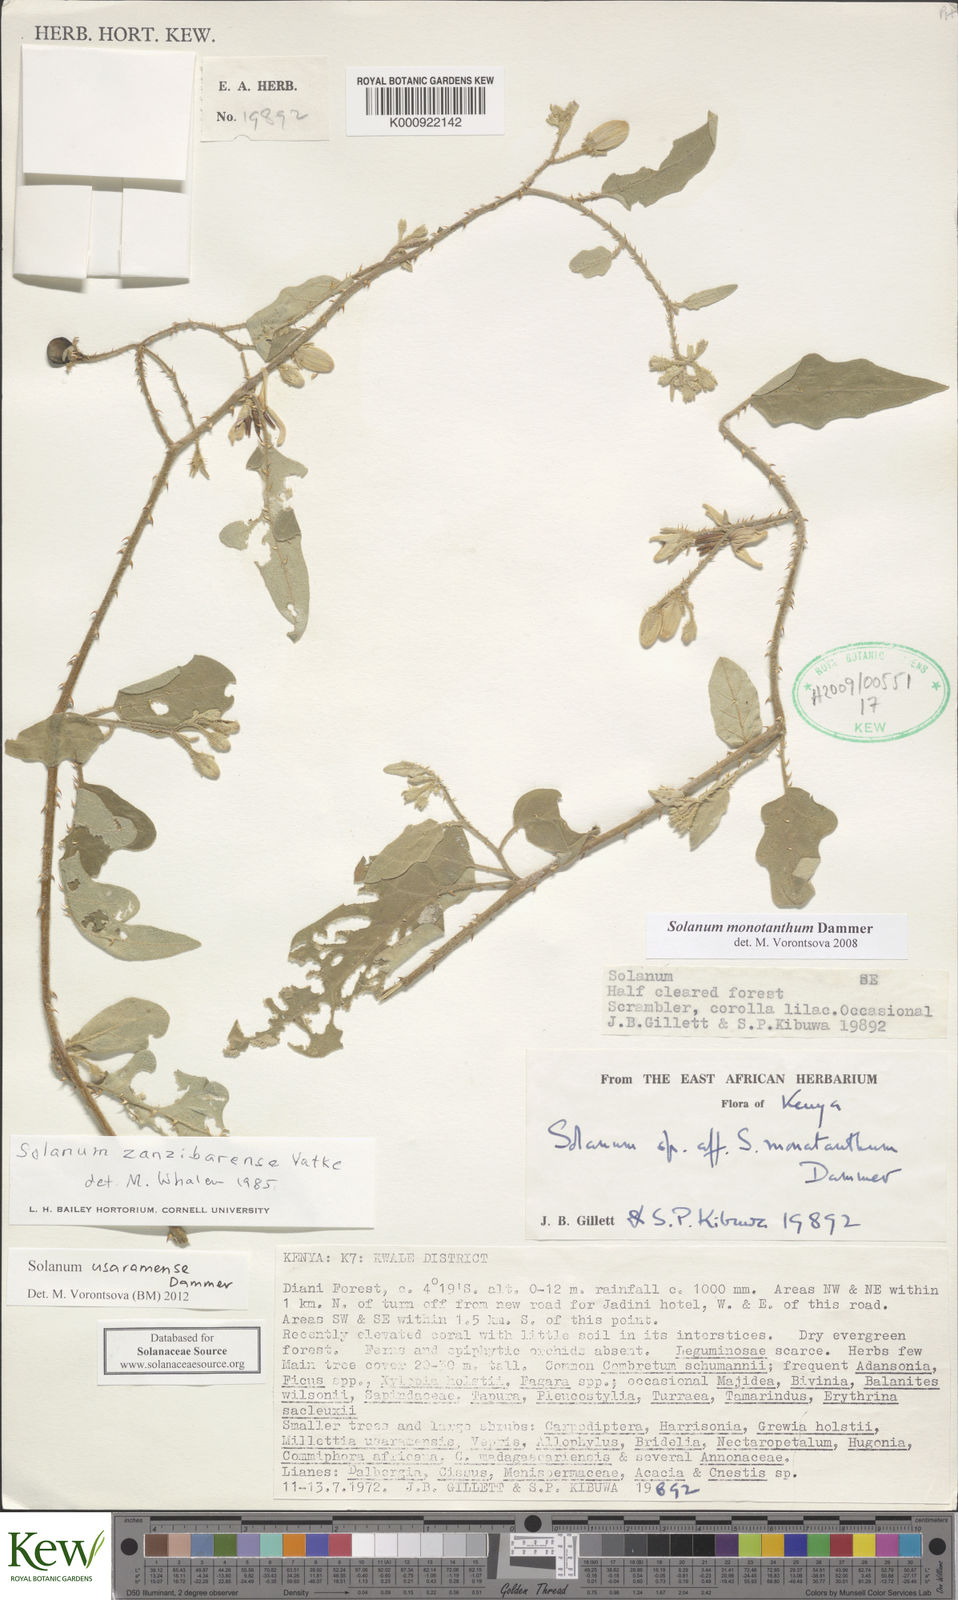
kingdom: Plantae
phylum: Tracheophyta
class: Magnoliopsida
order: Solanales
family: Solanaceae
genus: Solanum
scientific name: Solanum usaramense
